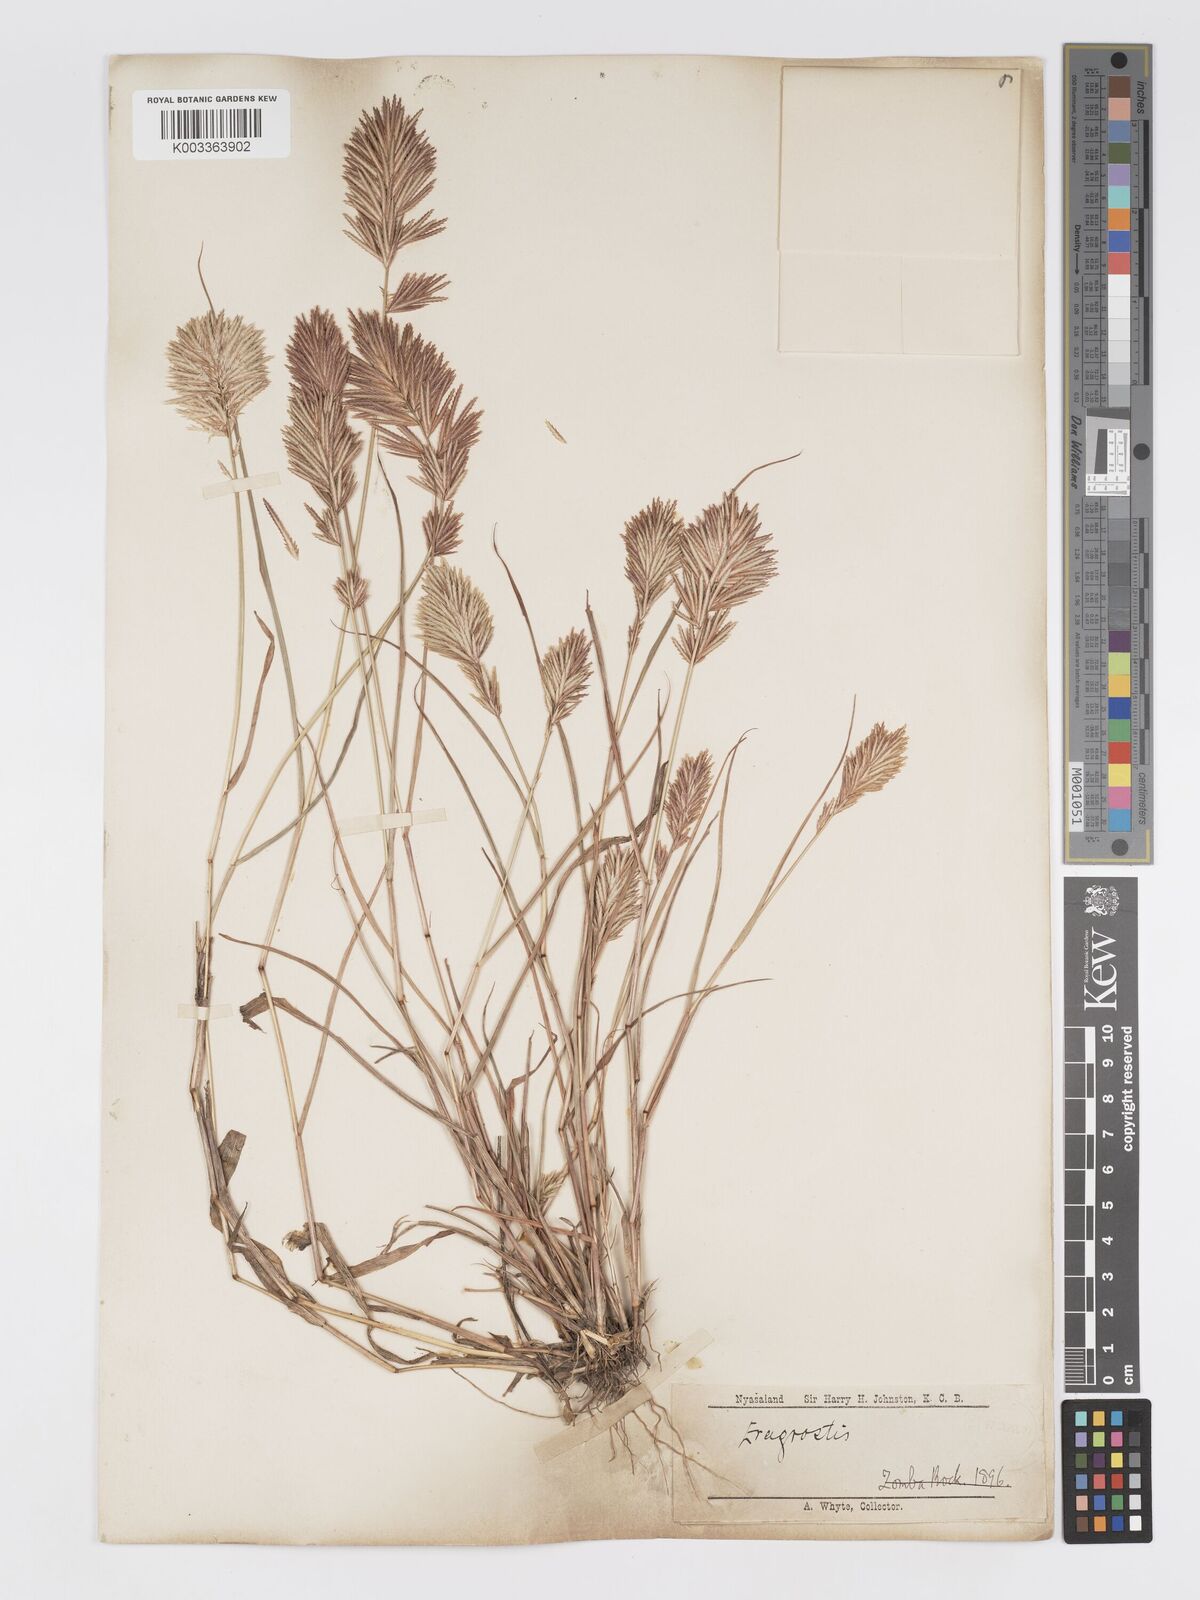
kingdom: Plantae
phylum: Tracheophyta
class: Liliopsida
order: Poales
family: Poaceae
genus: Eragrostis
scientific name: Eragrostis patens
